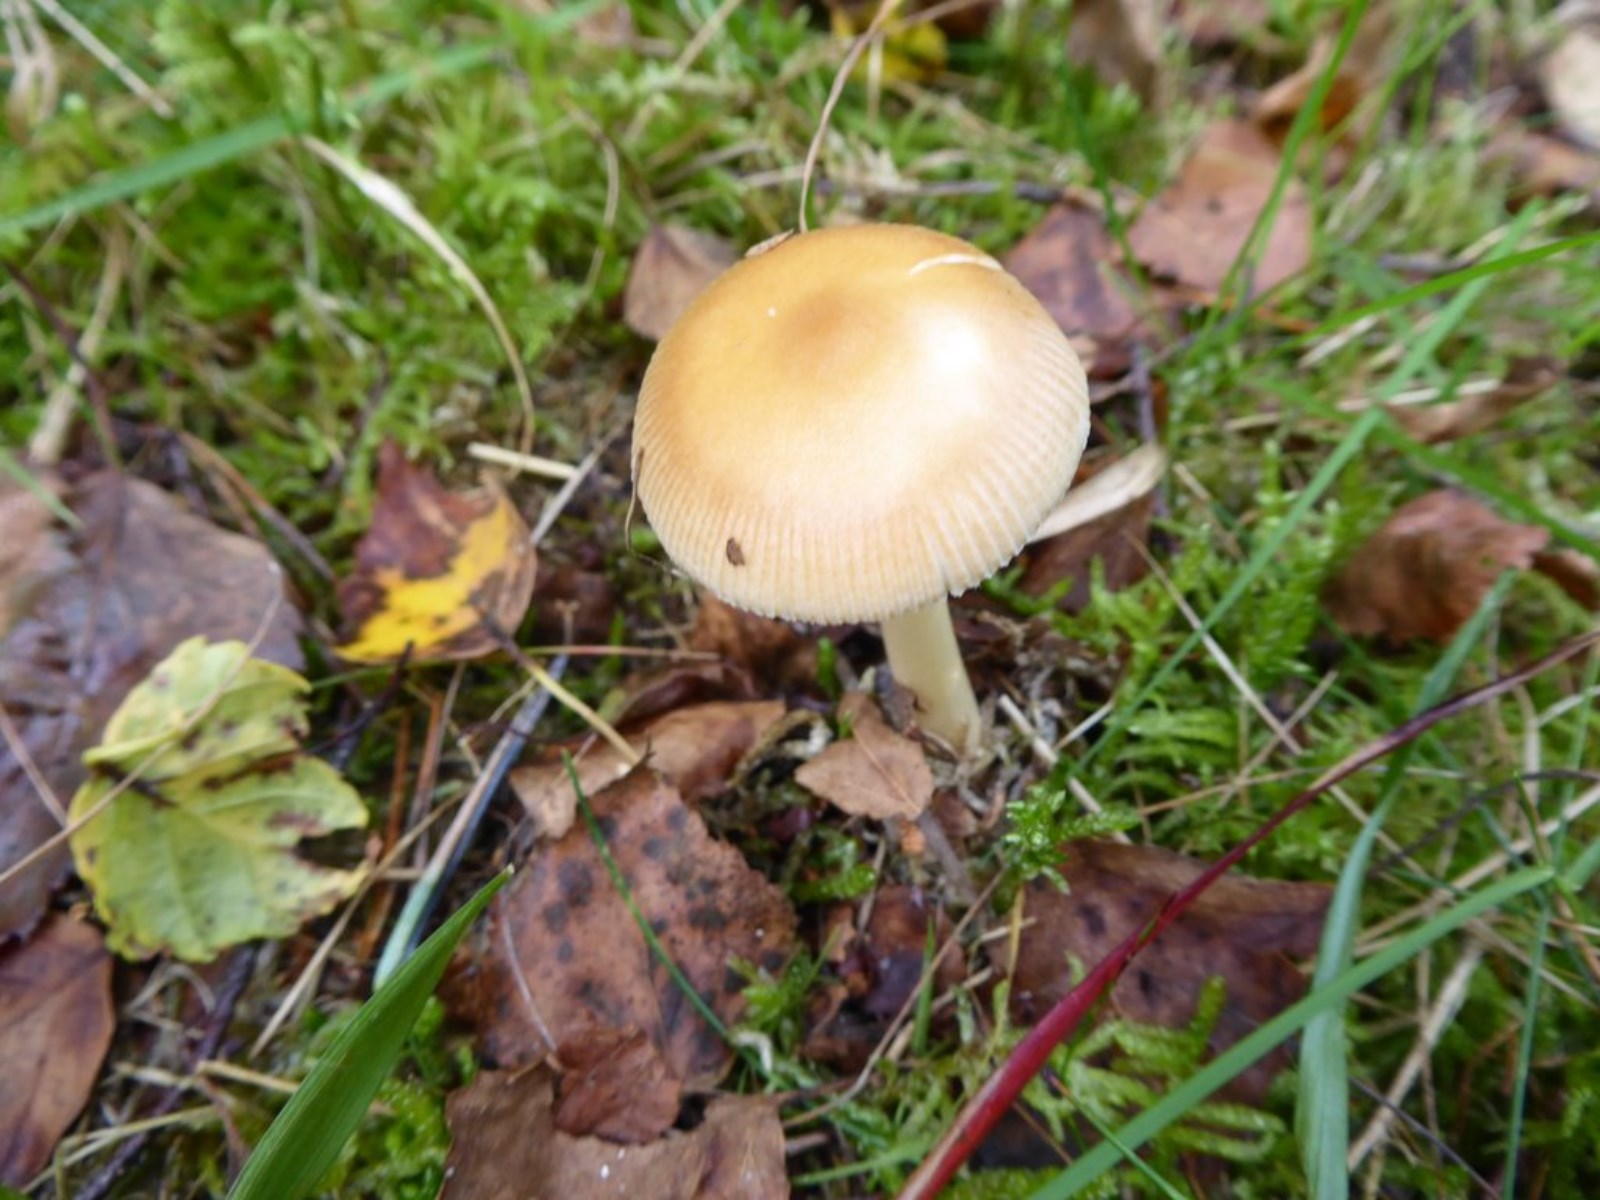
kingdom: Fungi
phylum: Basidiomycota
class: Agaricomycetes
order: Agaricales
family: Amanitaceae
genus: Amanita
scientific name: Amanita fulva
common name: brun kam-fluesvamp
